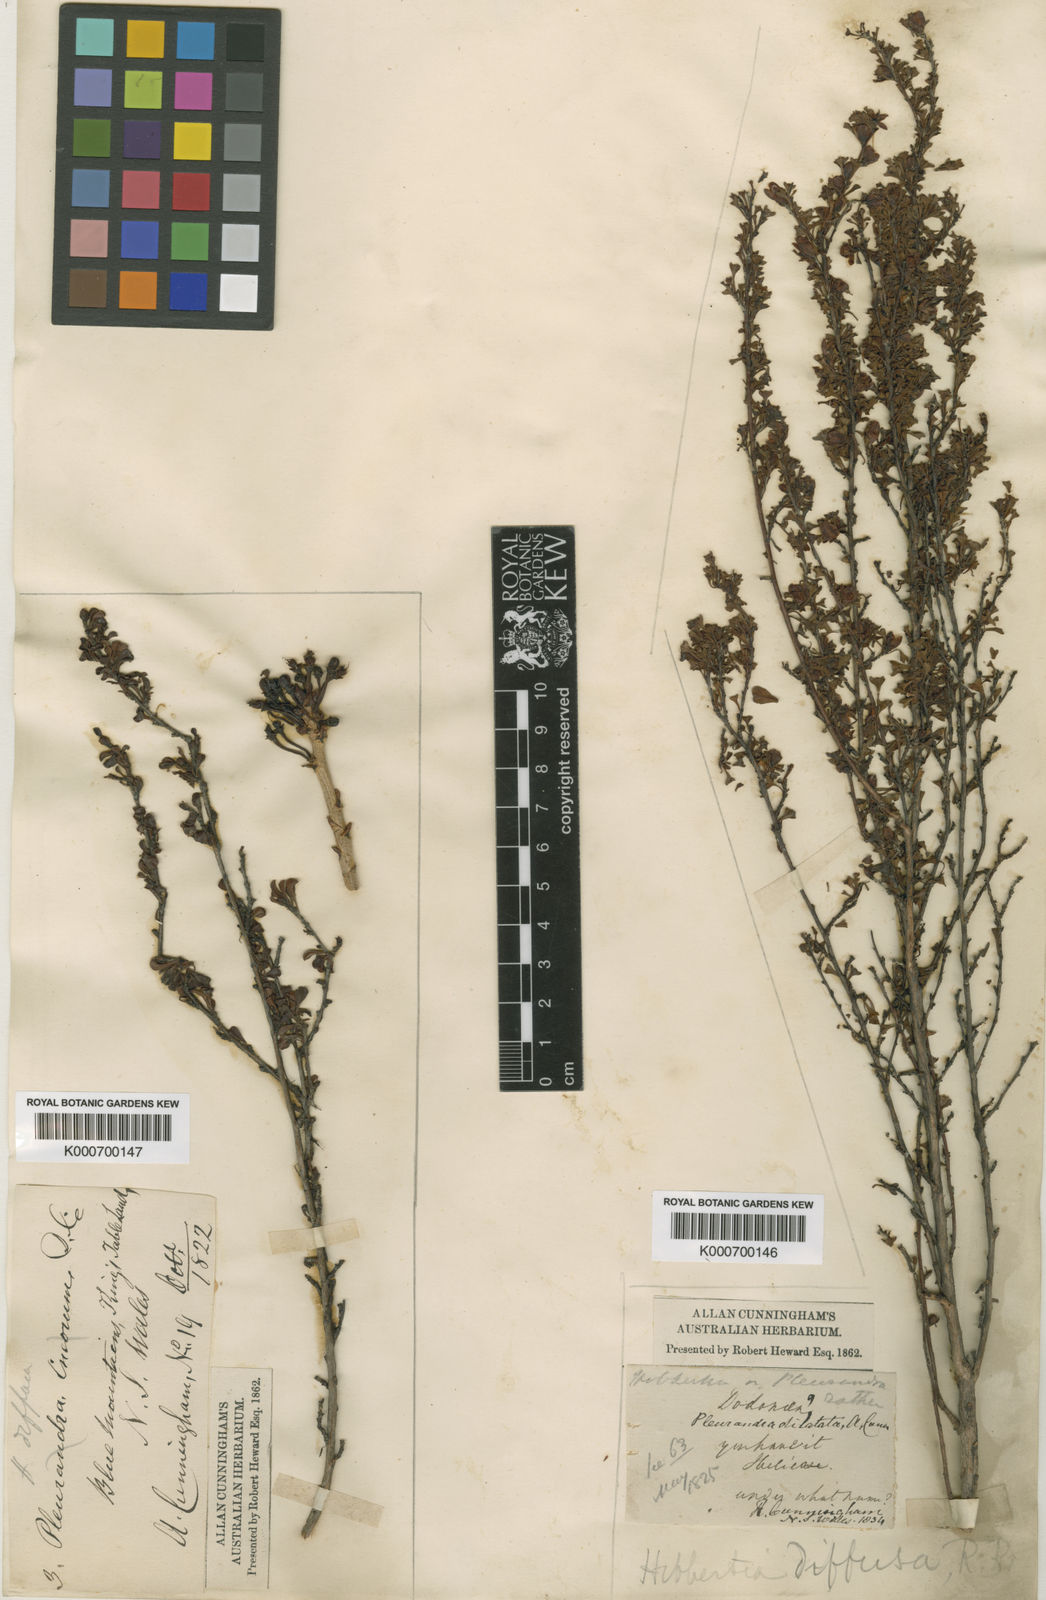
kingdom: Plantae
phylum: Tracheophyta
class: Magnoliopsida
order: Dilleniales
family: Dilleniaceae
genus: Hibbertia
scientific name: Hibbertia diffusa
